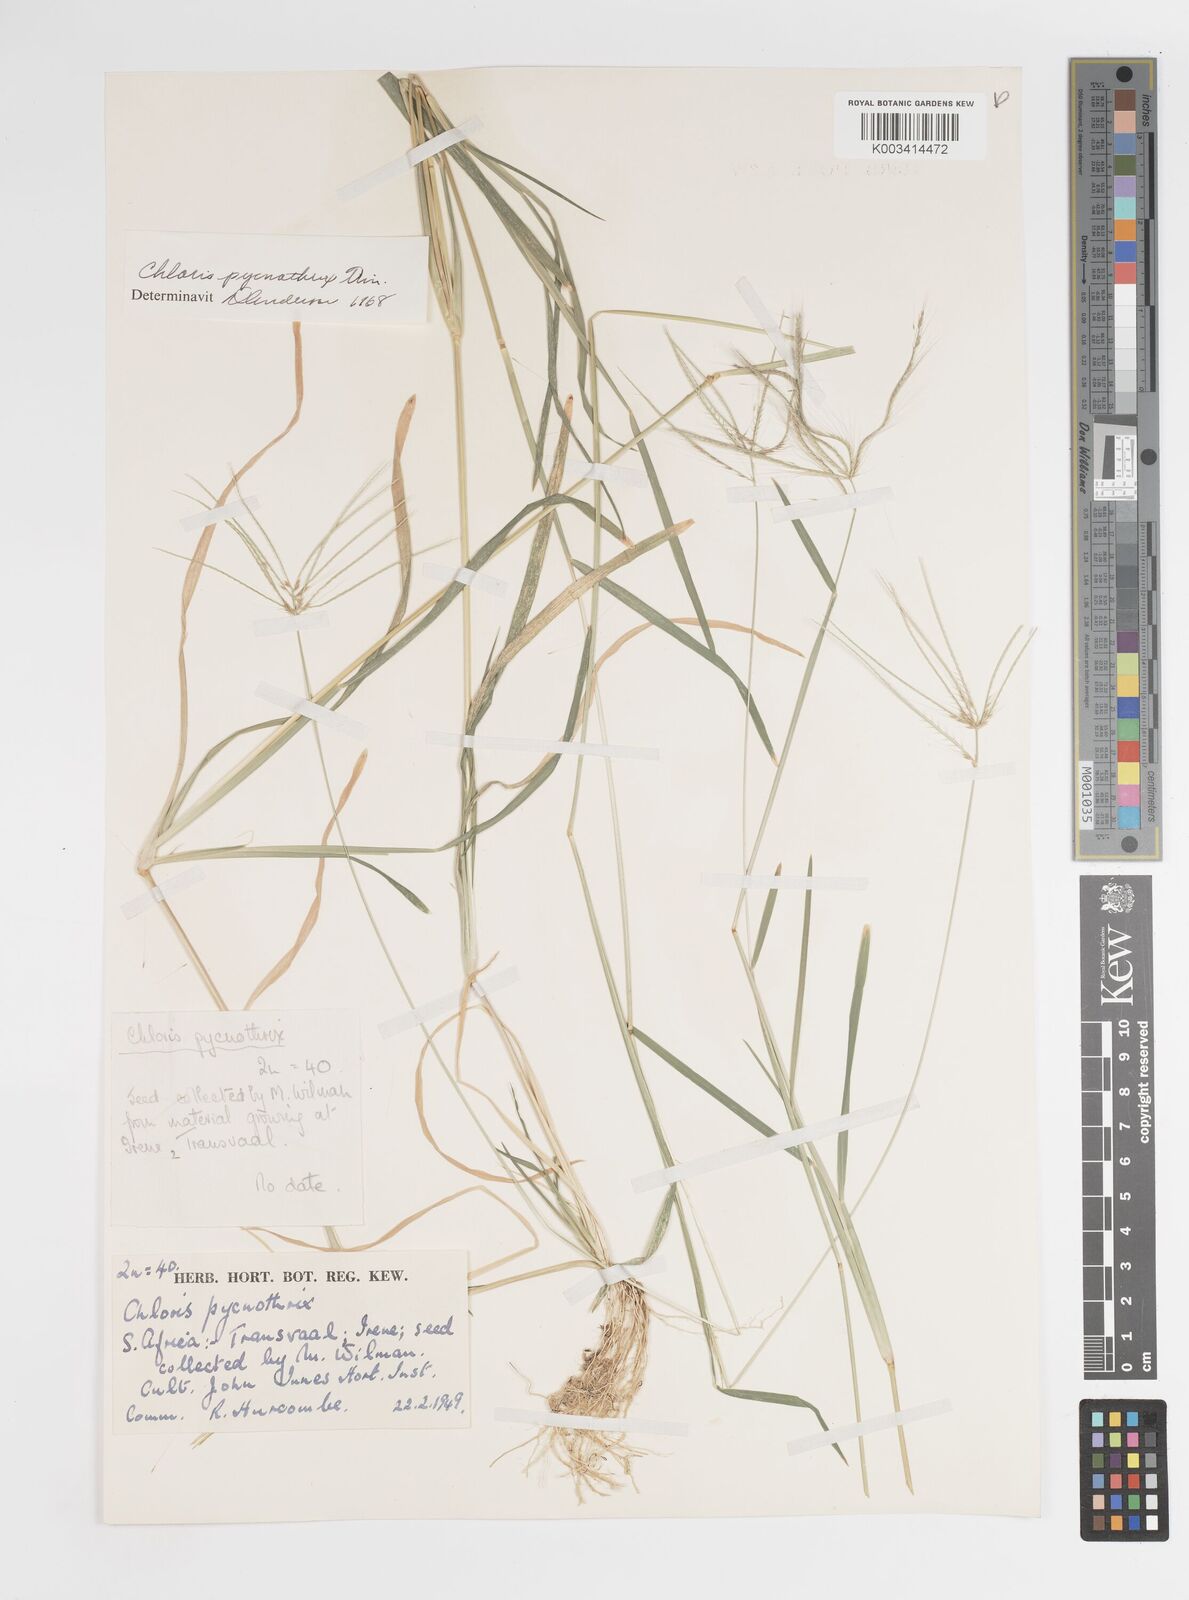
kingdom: Plantae
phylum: Tracheophyta
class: Liliopsida
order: Poales
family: Poaceae
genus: Chloris
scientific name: Chloris pycnothrix
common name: Spiderweb chloris
